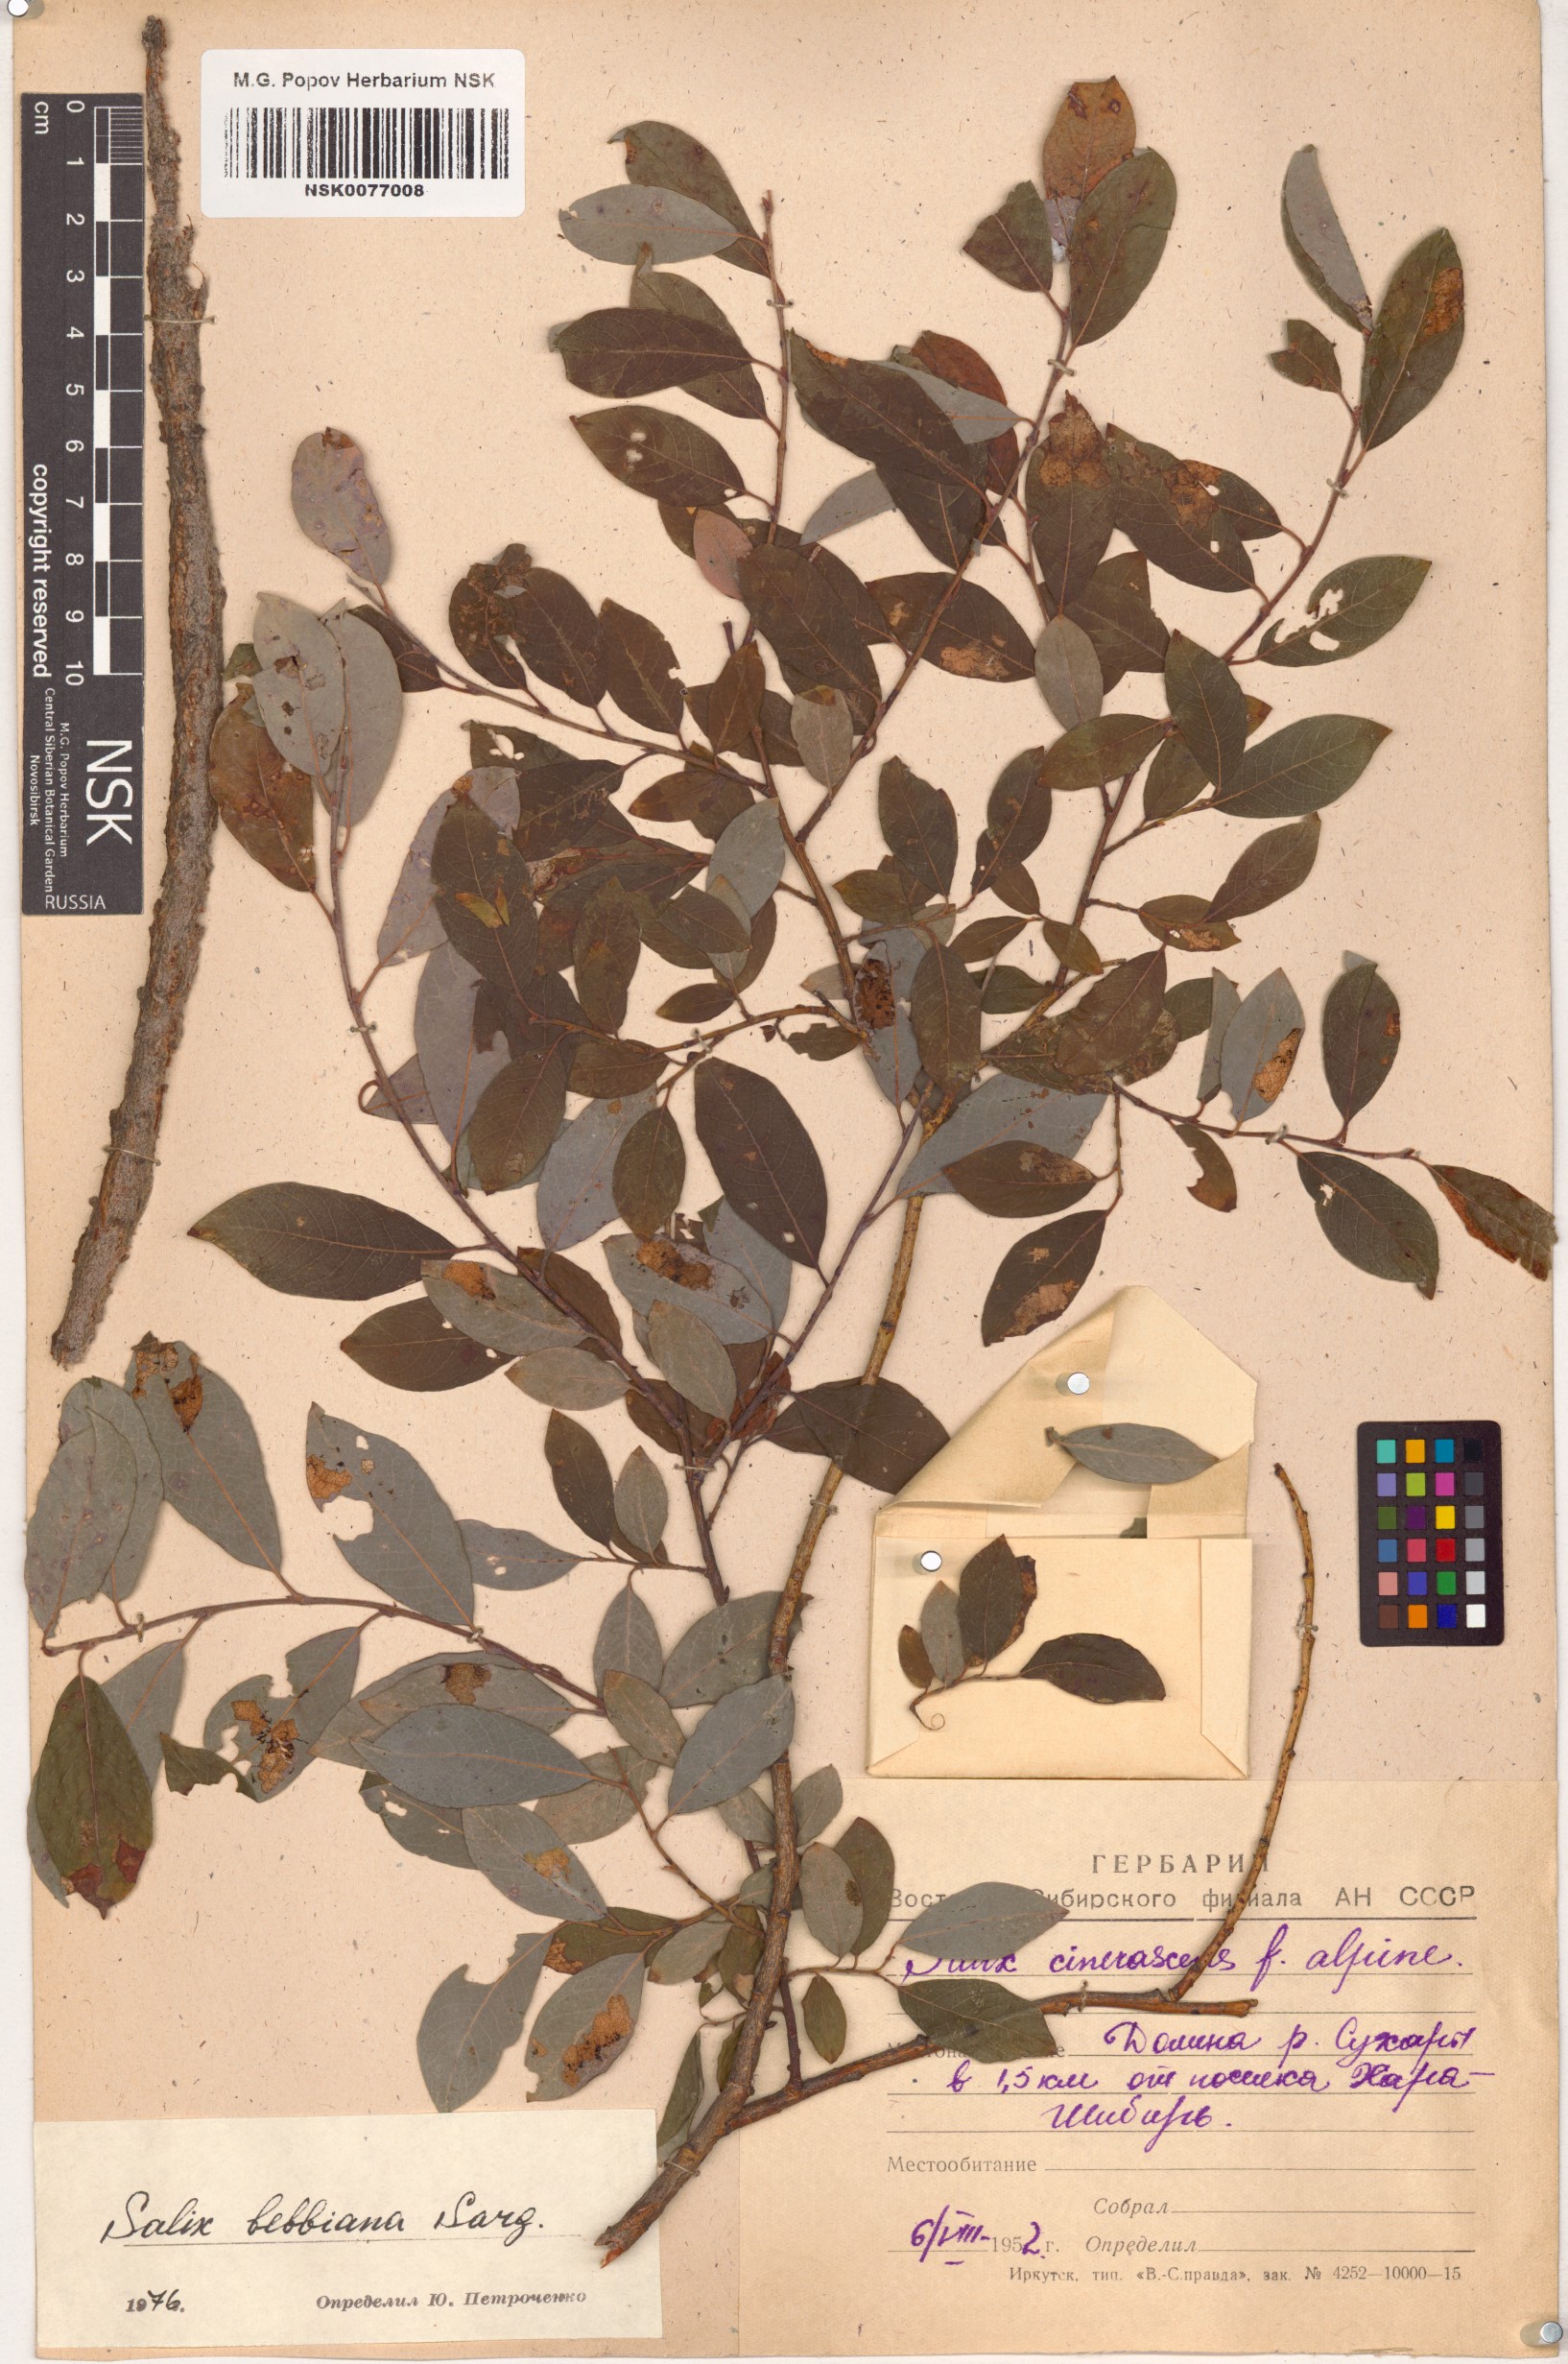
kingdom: Plantae
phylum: Tracheophyta
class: Magnoliopsida
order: Malpighiales
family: Salicaceae
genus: Salix
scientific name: Salix bebbiana
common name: Bebb's willow
